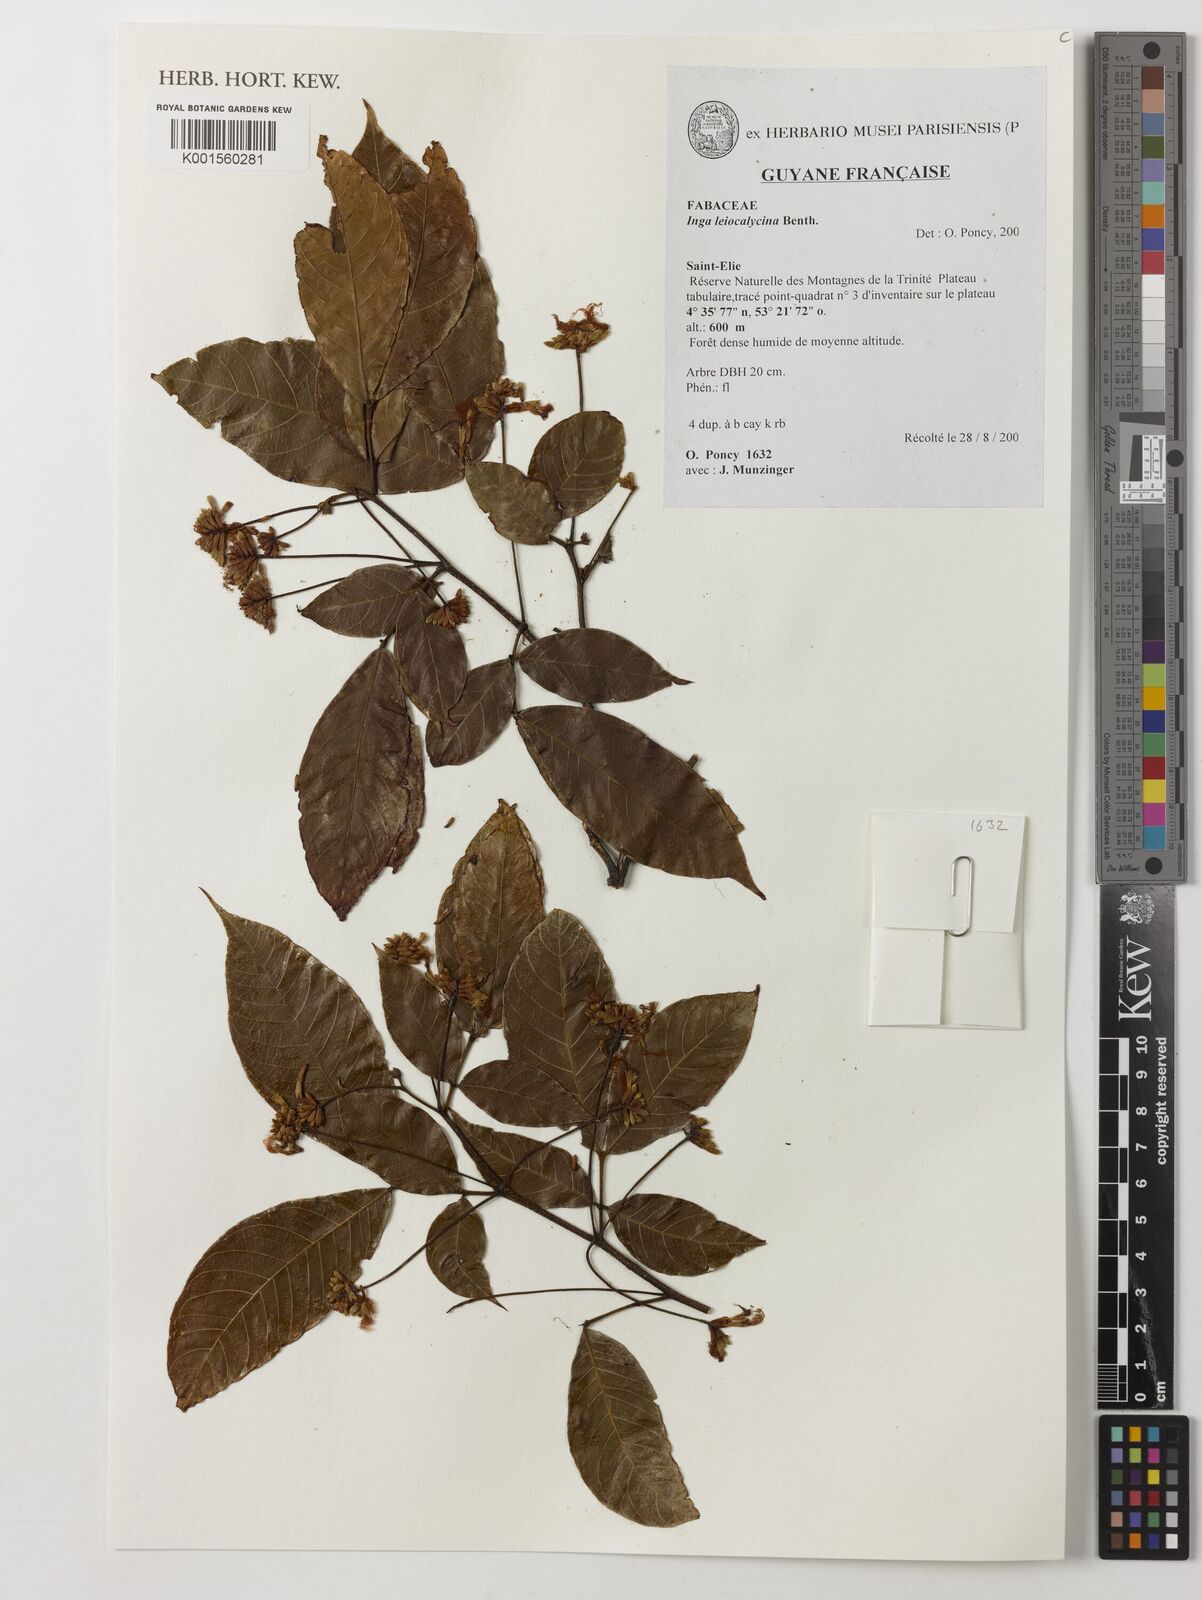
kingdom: Plantae
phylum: Tracheophyta
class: Magnoliopsida
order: Fabales
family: Fabaceae
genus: Inga
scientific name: Inga laevigata
